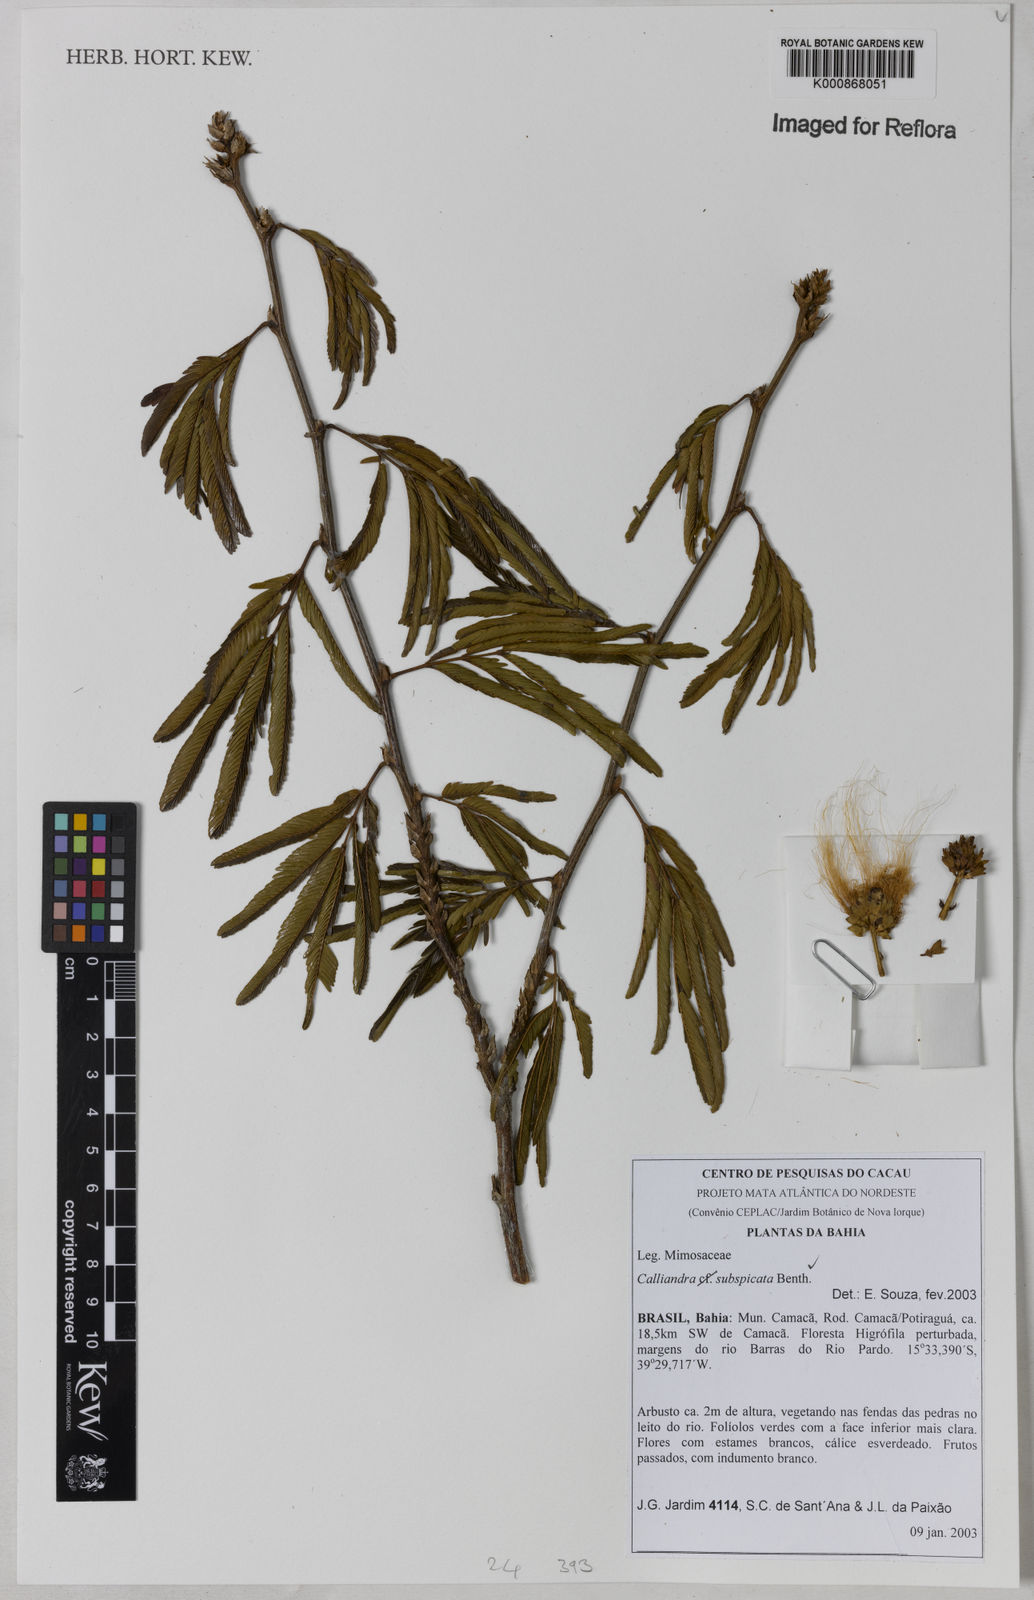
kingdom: Plantae
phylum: Tracheophyta
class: Magnoliopsida
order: Fabales
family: Fabaceae
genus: Calliandra
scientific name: Calliandra subspicata
